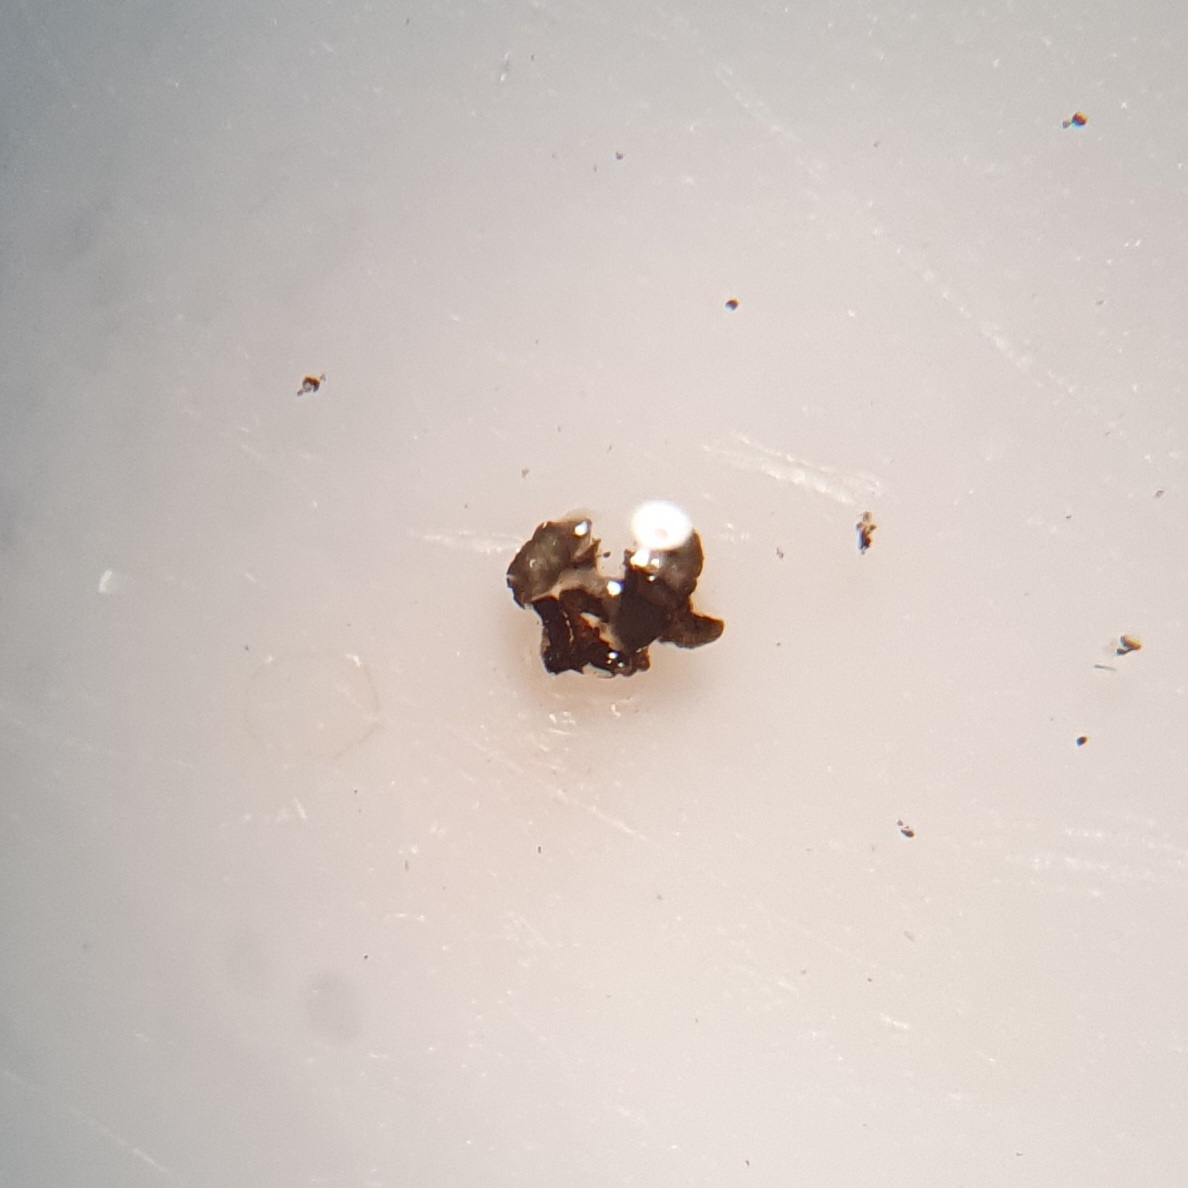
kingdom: Fungi
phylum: Ascomycota
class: Leotiomycetes
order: Helotiales
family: Mollisiaceae
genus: Mollisia
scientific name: Mollisia ligni
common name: ved-gråskive
